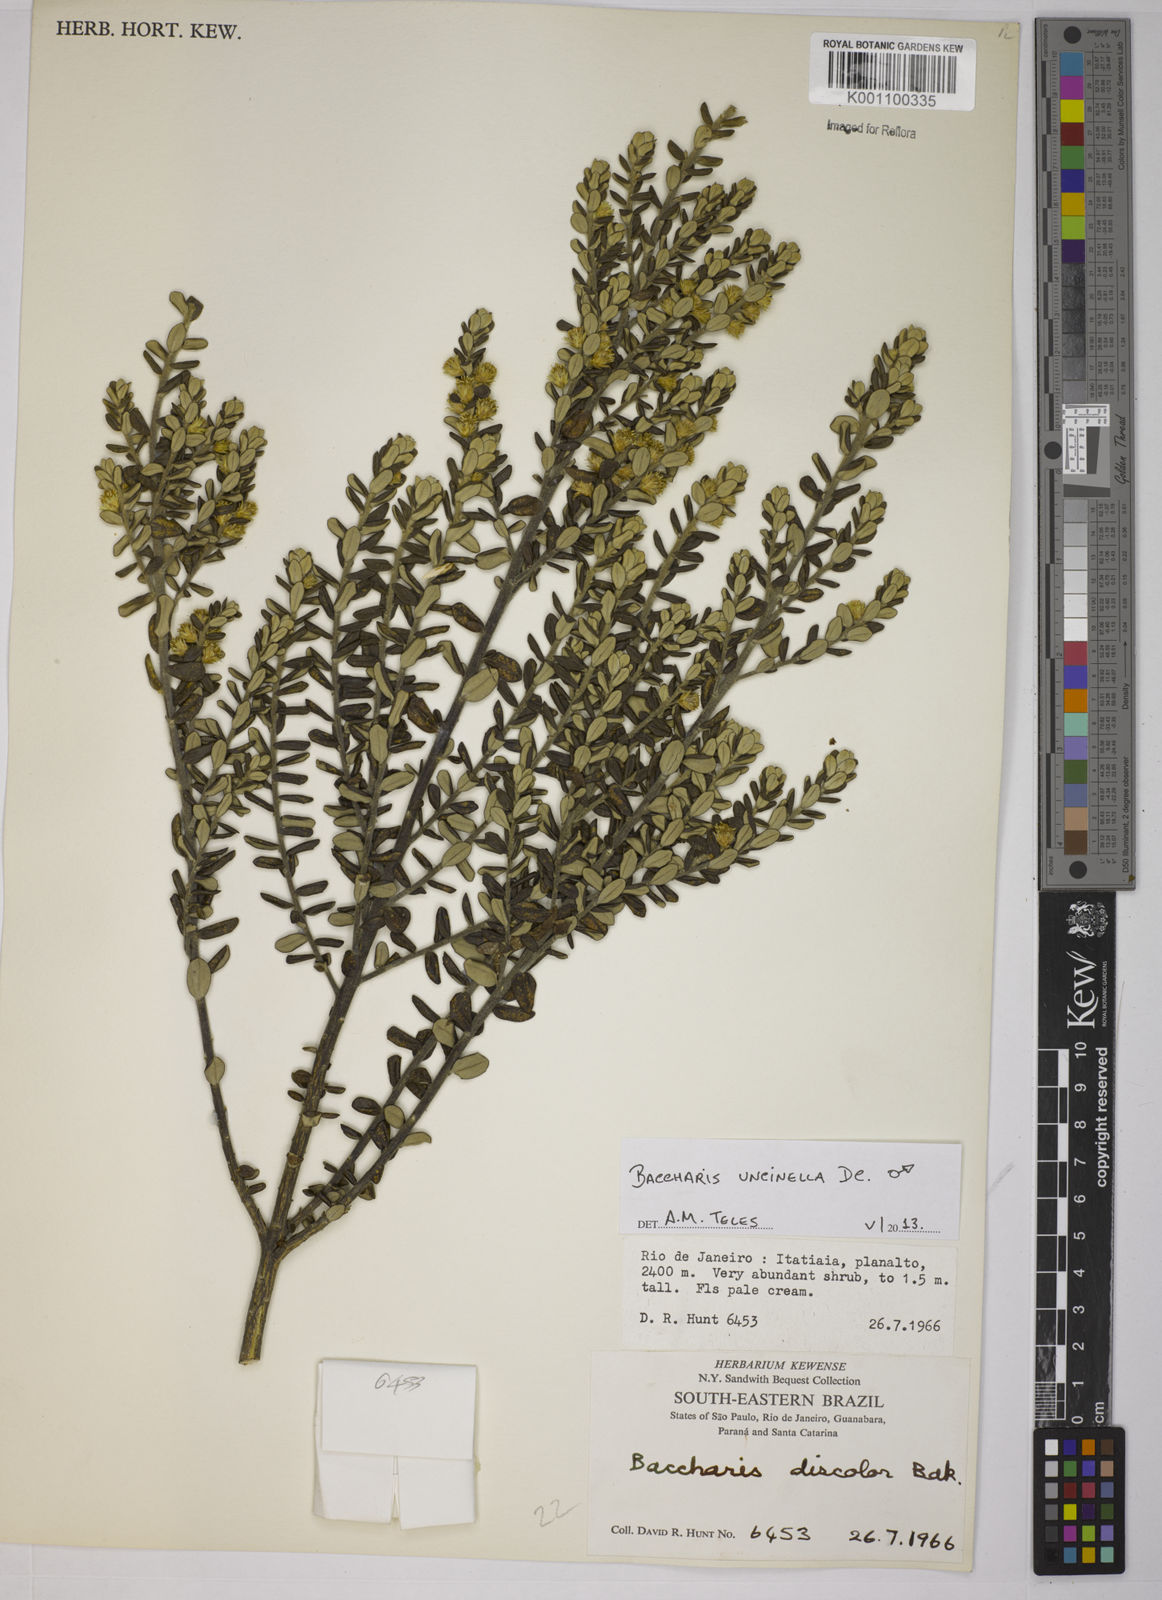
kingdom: Plantae
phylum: Tracheophyta
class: Magnoliopsida
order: Asterales
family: Asteraceae
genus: Baccharis
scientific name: Baccharis uncinella
